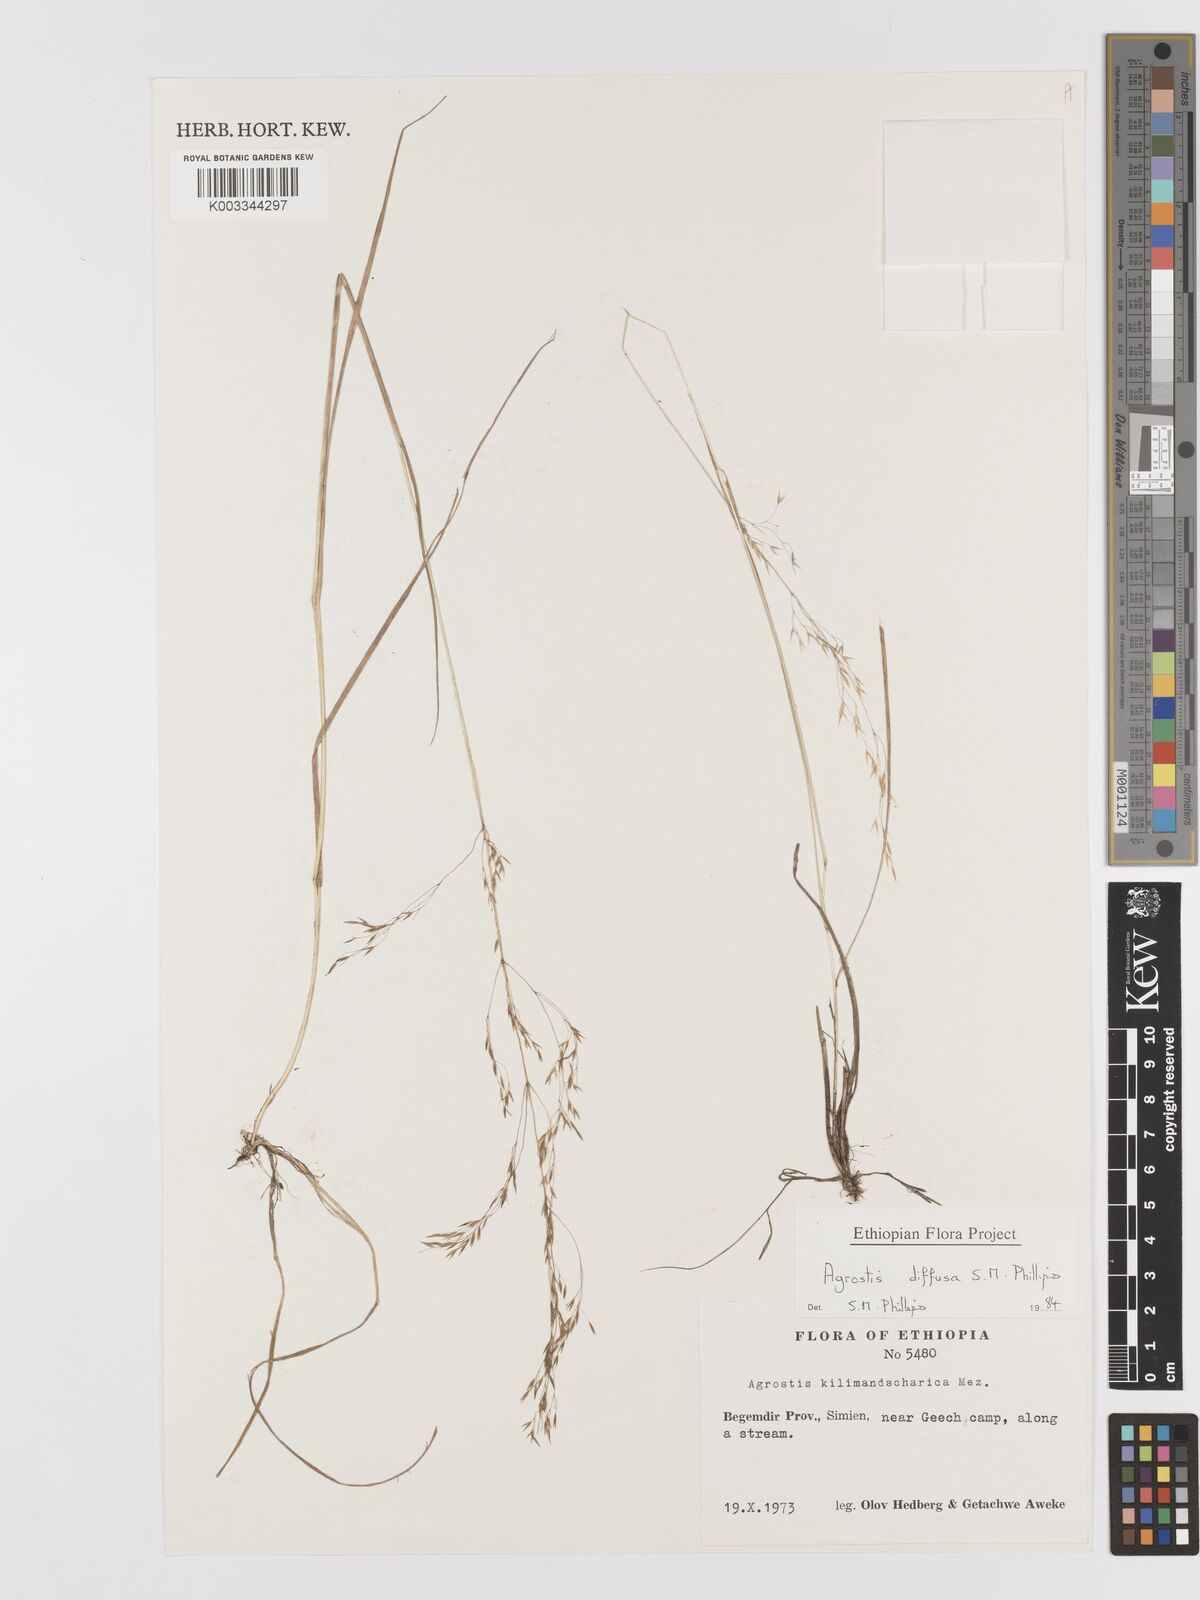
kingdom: Plantae
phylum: Tracheophyta
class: Liliopsida
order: Poales
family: Poaceae
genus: Agrostis
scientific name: Agrostis diffusa
